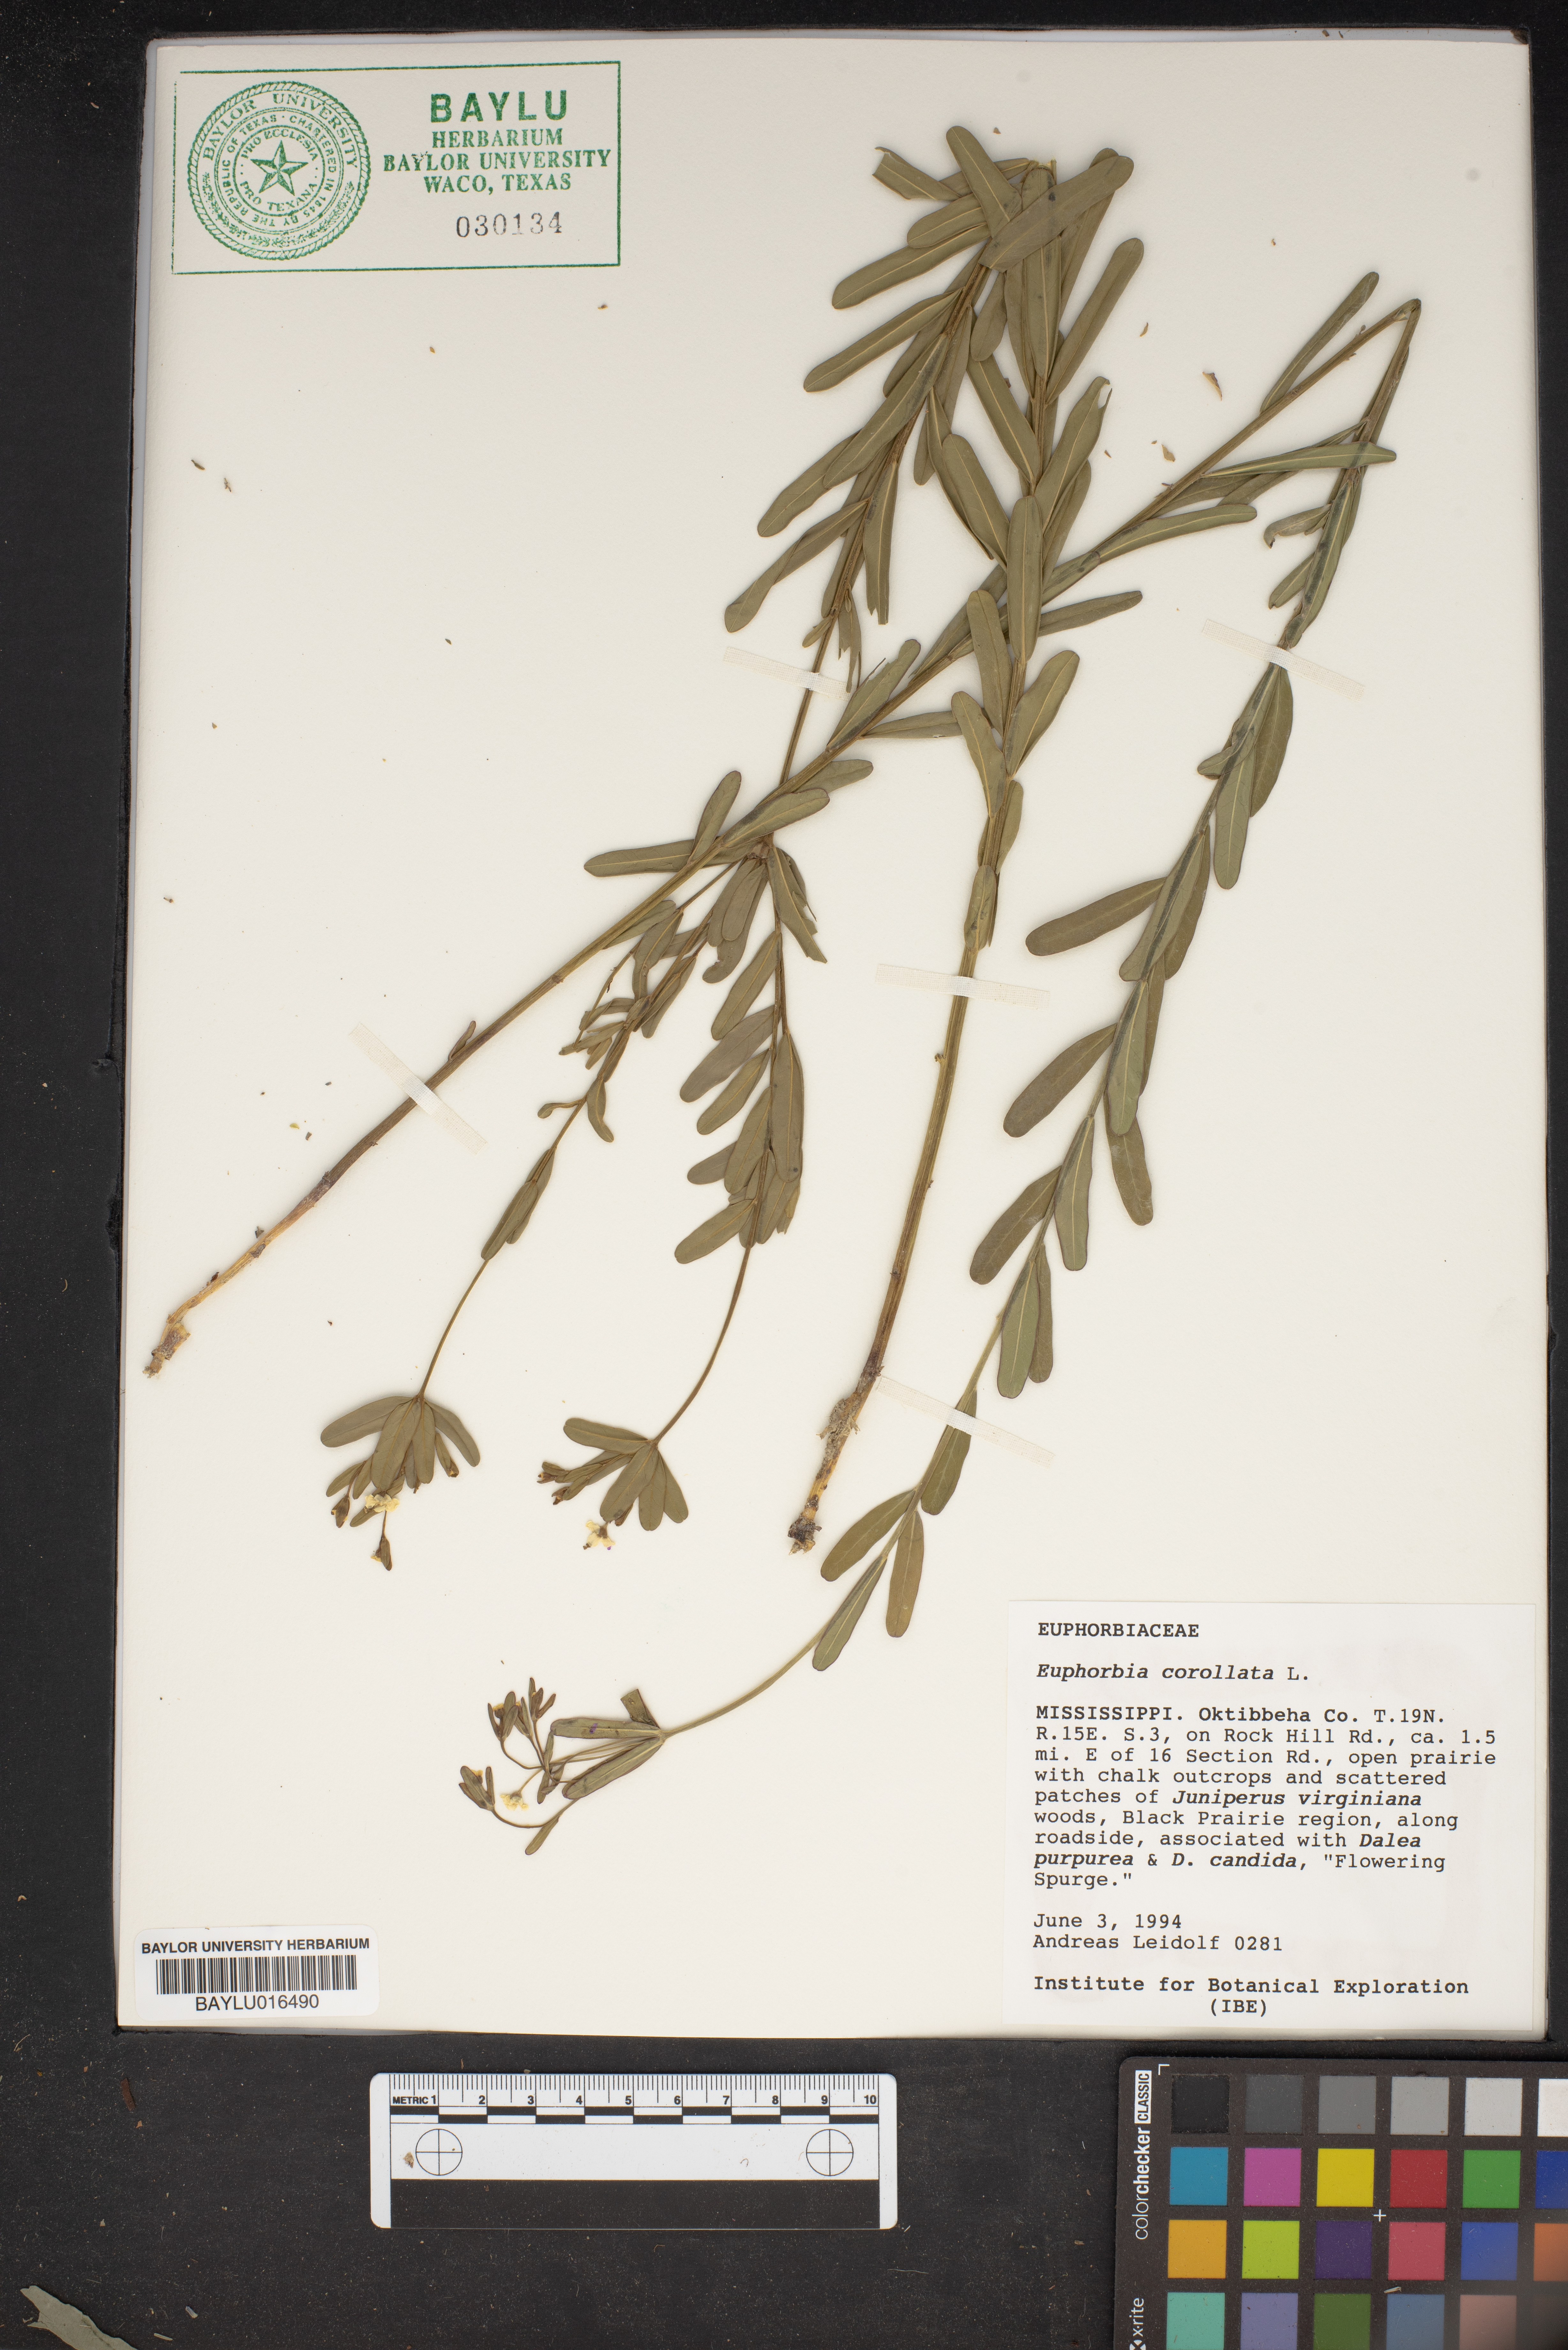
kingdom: Plantae
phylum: Tracheophyta
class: Magnoliopsida
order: Malpighiales
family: Euphorbiaceae
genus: Euphorbia
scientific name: Euphorbia corollata
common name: Flowering spurge
